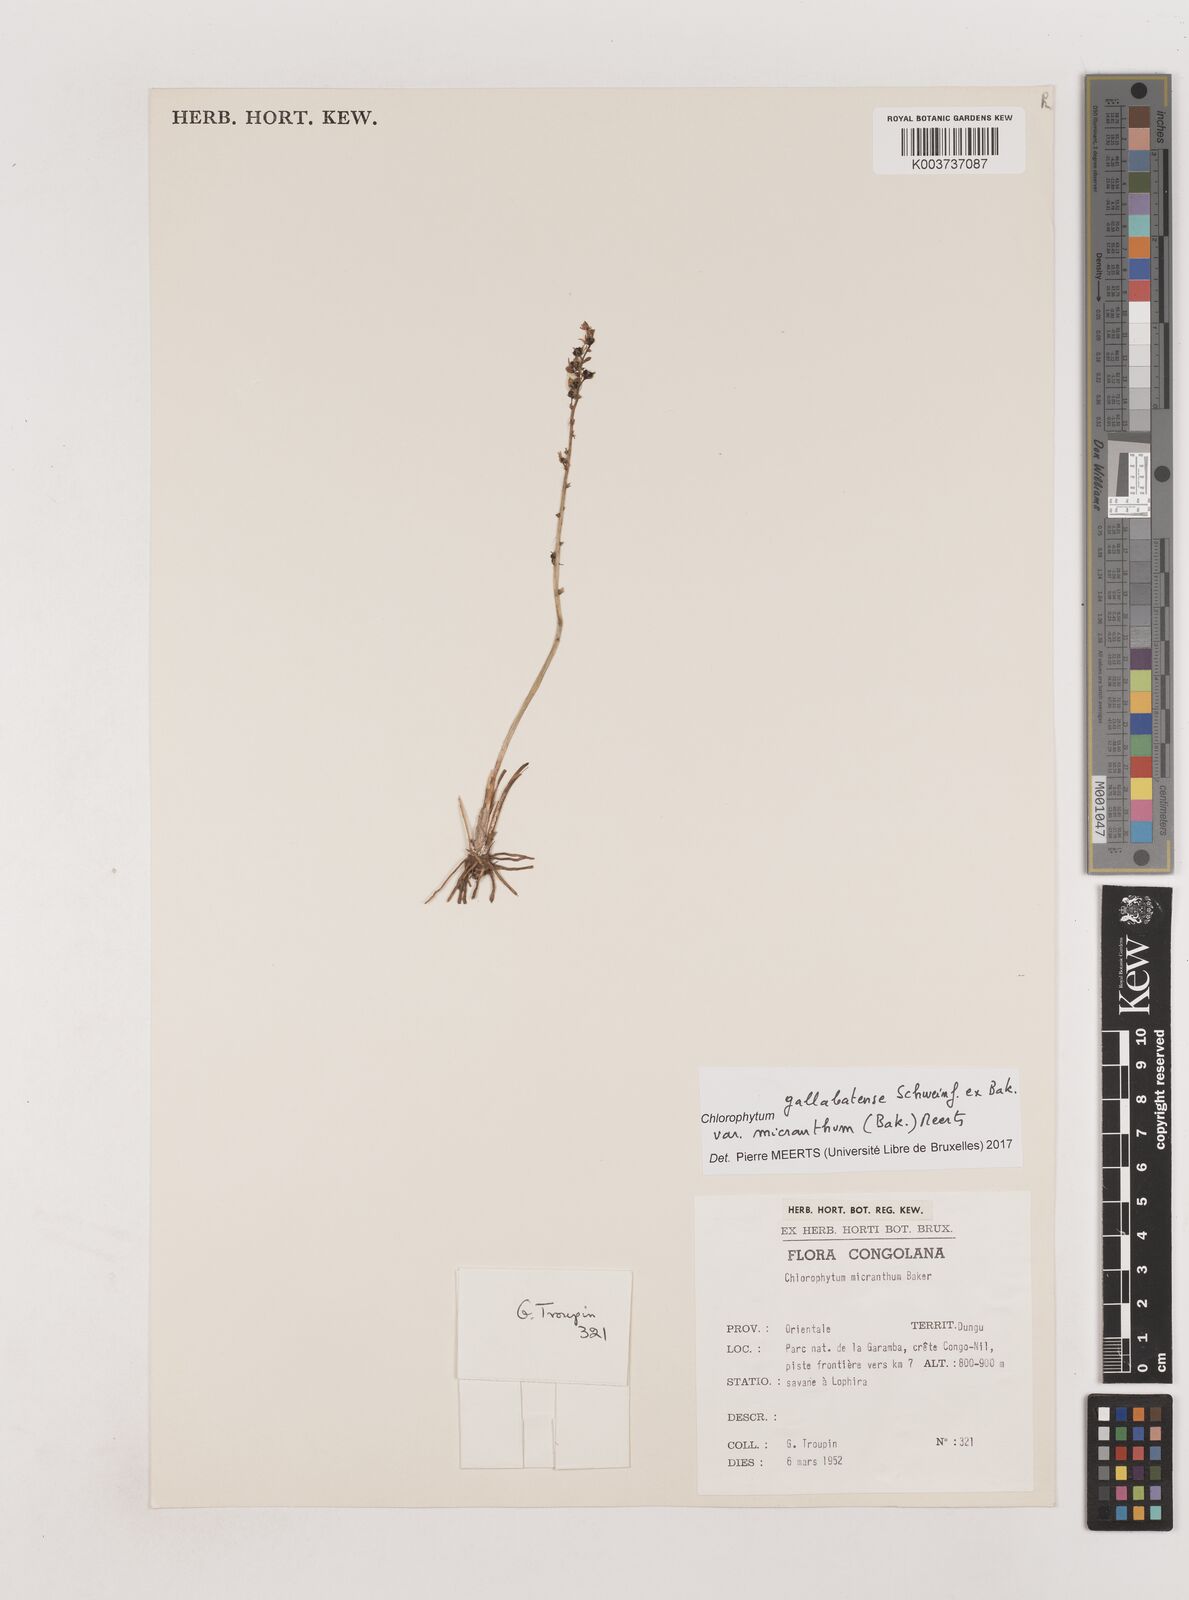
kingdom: Plantae
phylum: Tracheophyta
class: Liliopsida
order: Asparagales
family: Asparagaceae
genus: Chlorophytum
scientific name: Chlorophytum gallabatense
